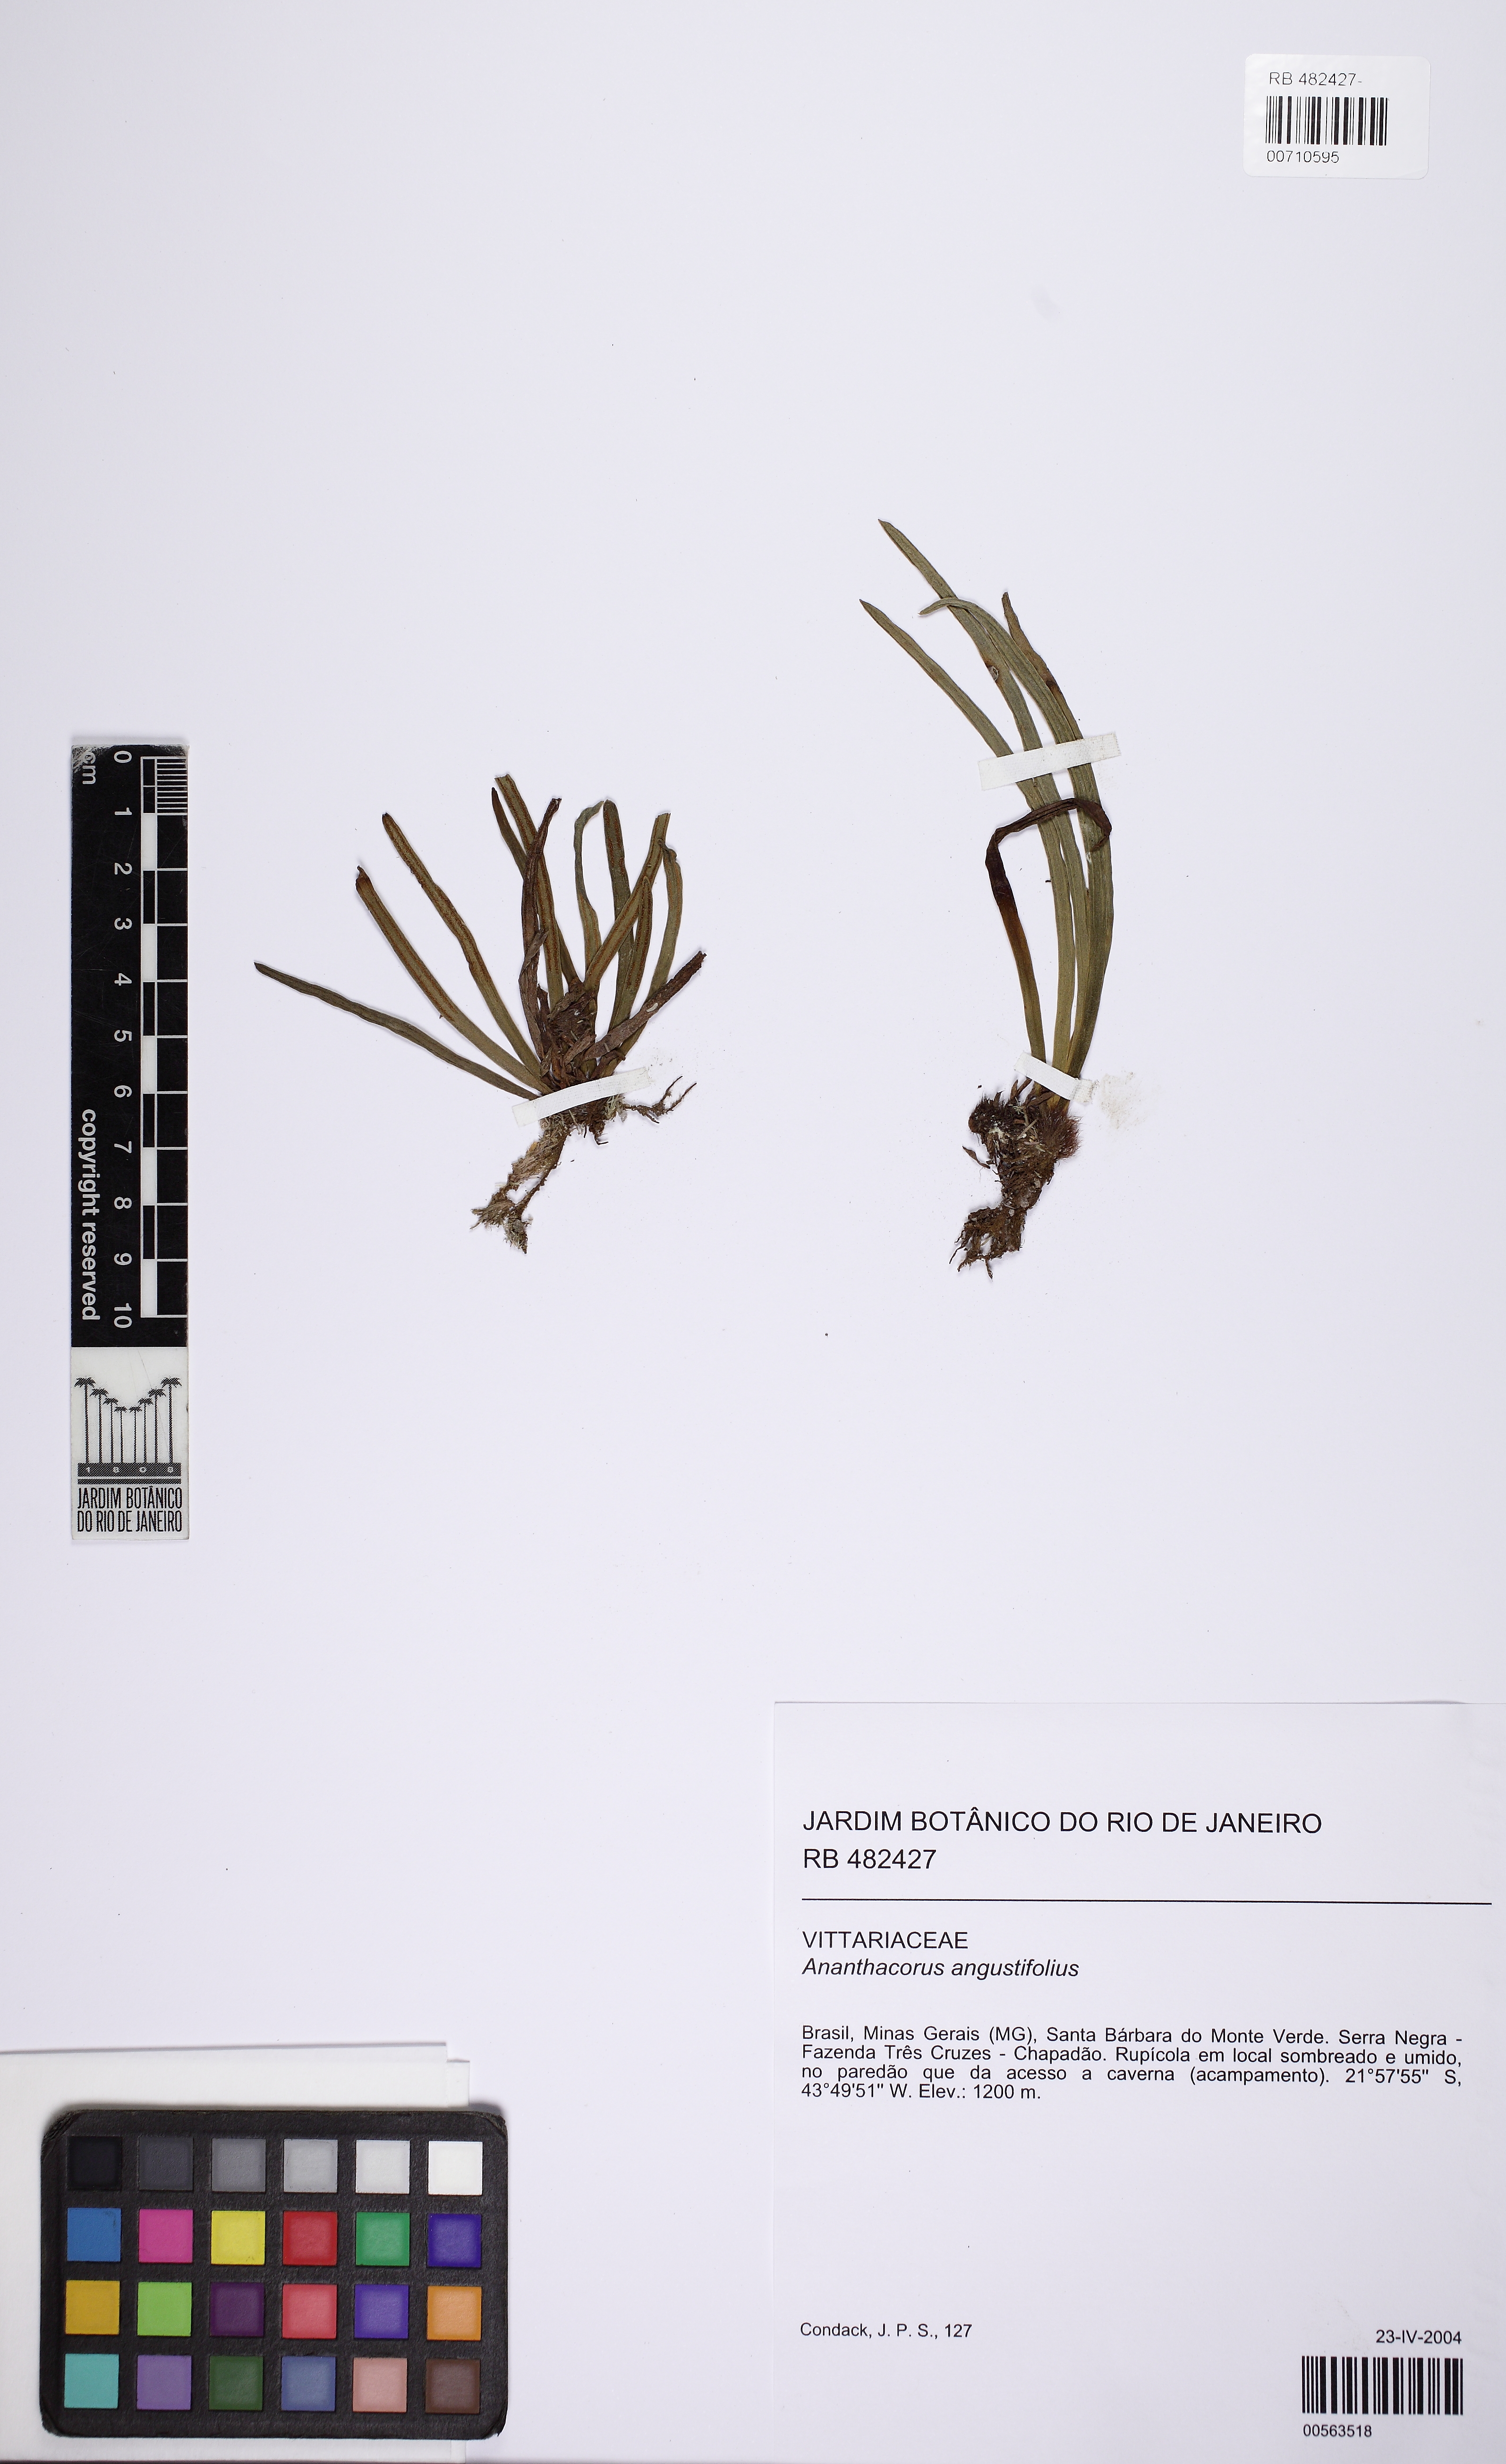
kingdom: Plantae
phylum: Tracheophyta
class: Polypodiopsida
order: Polypodiales
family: Pteridaceae
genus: Vittaria
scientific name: Vittaria
